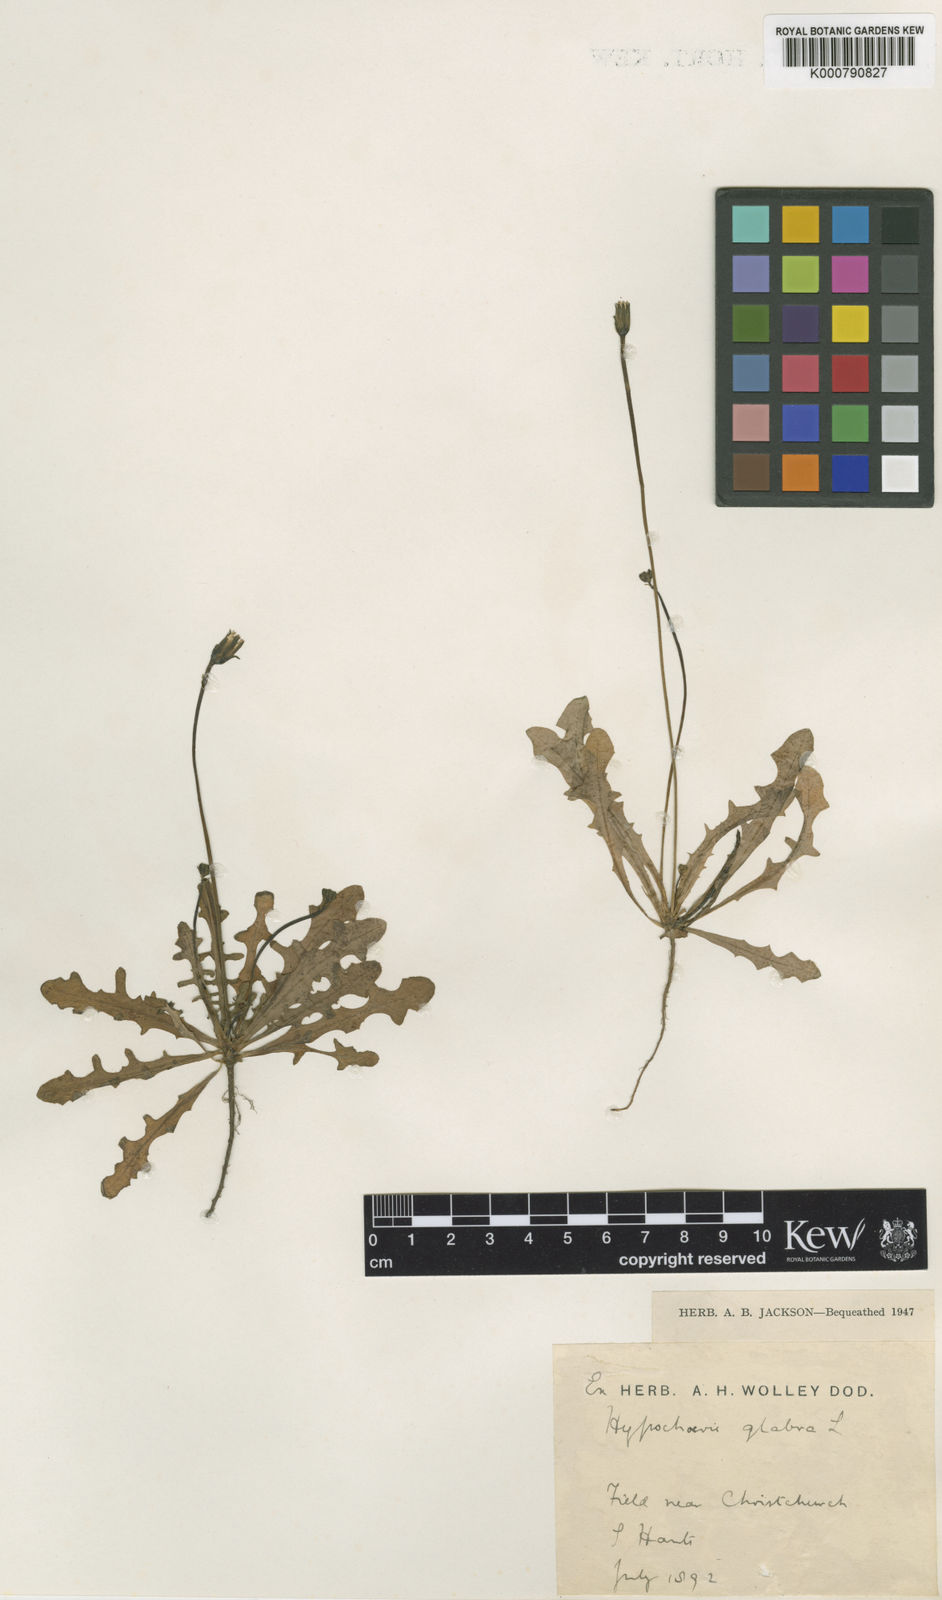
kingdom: Plantae
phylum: Tracheophyta
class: Magnoliopsida
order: Asterales
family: Asteraceae
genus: Hypochaeris
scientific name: Hypochaeris glabra
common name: Smooth catsear
